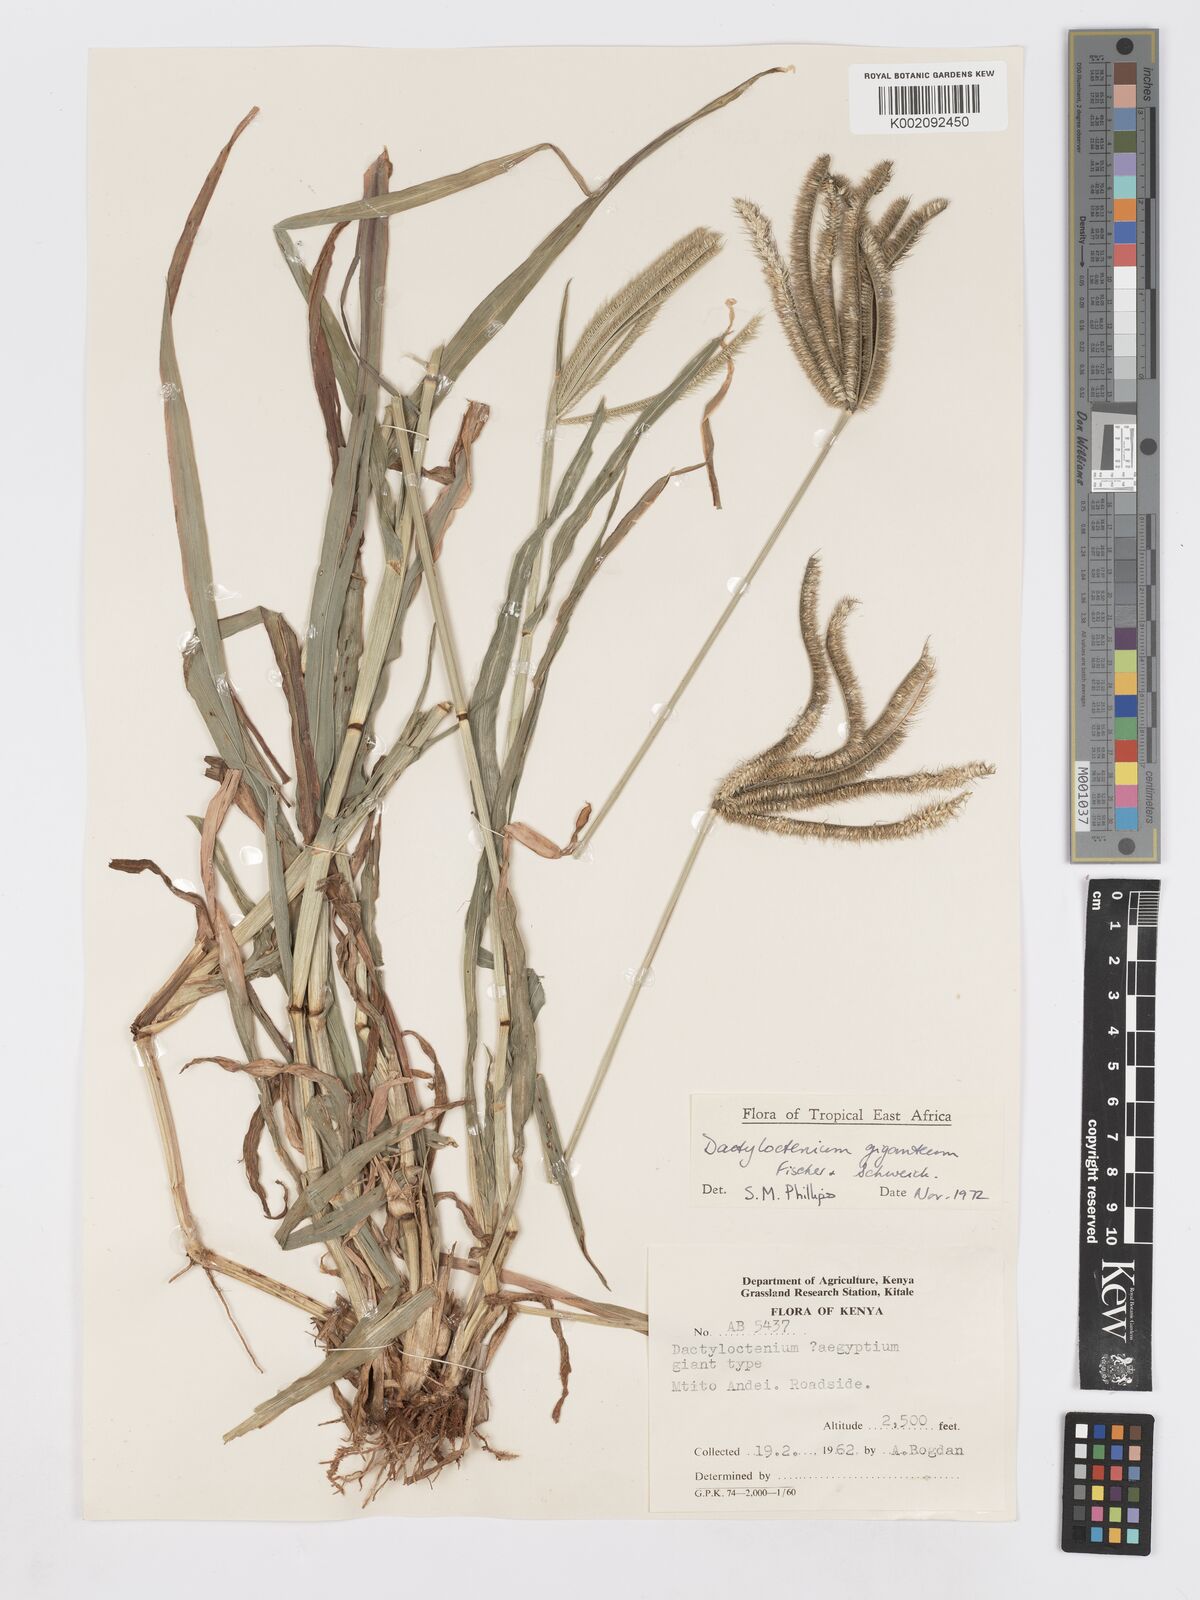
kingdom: Plantae
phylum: Tracheophyta
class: Liliopsida
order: Poales
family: Poaceae
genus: Dactyloctenium
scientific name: Dactyloctenium giganteum
